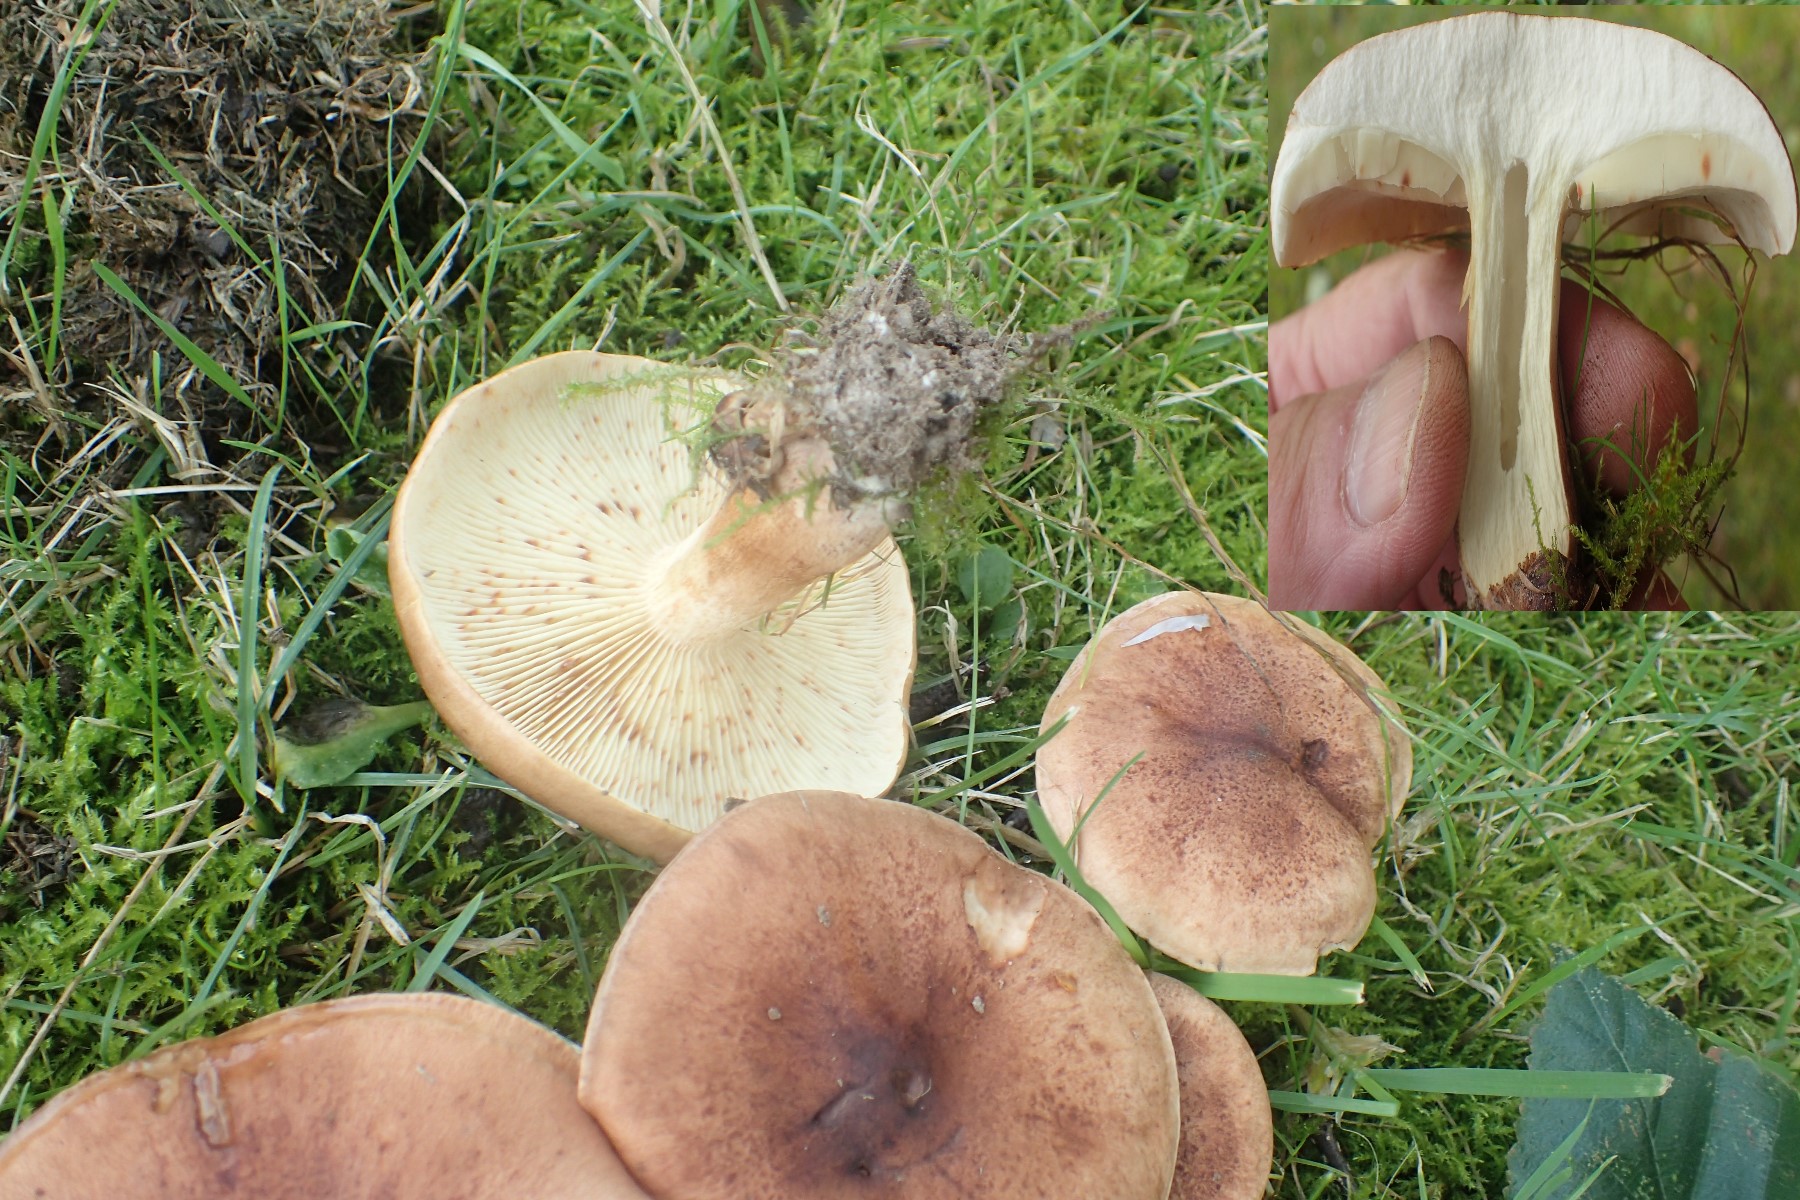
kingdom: Fungi
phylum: Basidiomycota
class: Agaricomycetes
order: Agaricales
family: Tricholomataceae
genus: Tricholoma
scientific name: Tricholoma fulvum
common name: birke-ridderhat
